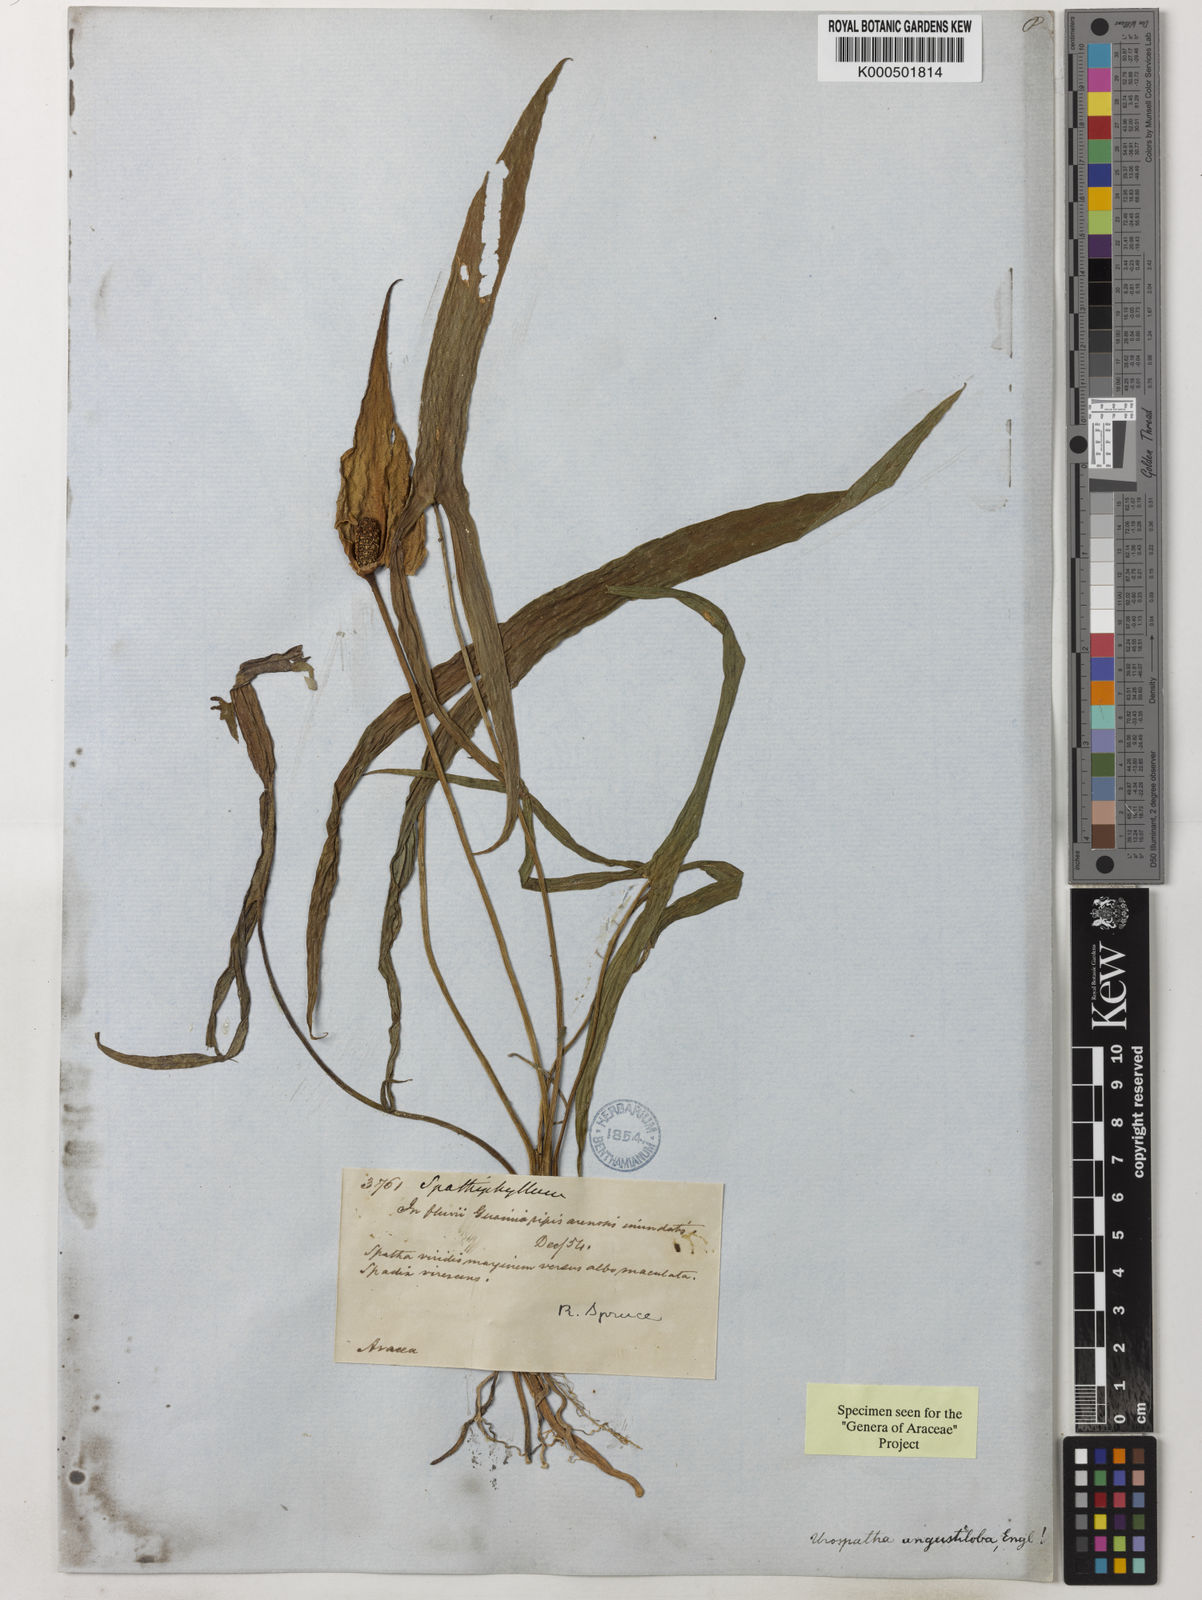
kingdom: Plantae
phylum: Tracheophyta
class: Liliopsida
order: Alismatales
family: Araceae
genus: Urospatha
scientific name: Urospatha angustiloba
